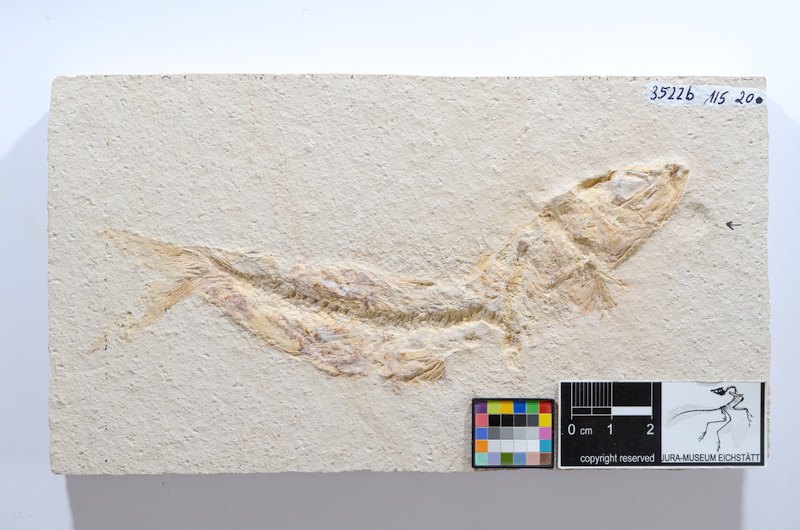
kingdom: Animalia
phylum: Chordata
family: Ascalaboidae
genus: Tharsis
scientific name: Tharsis dubius
